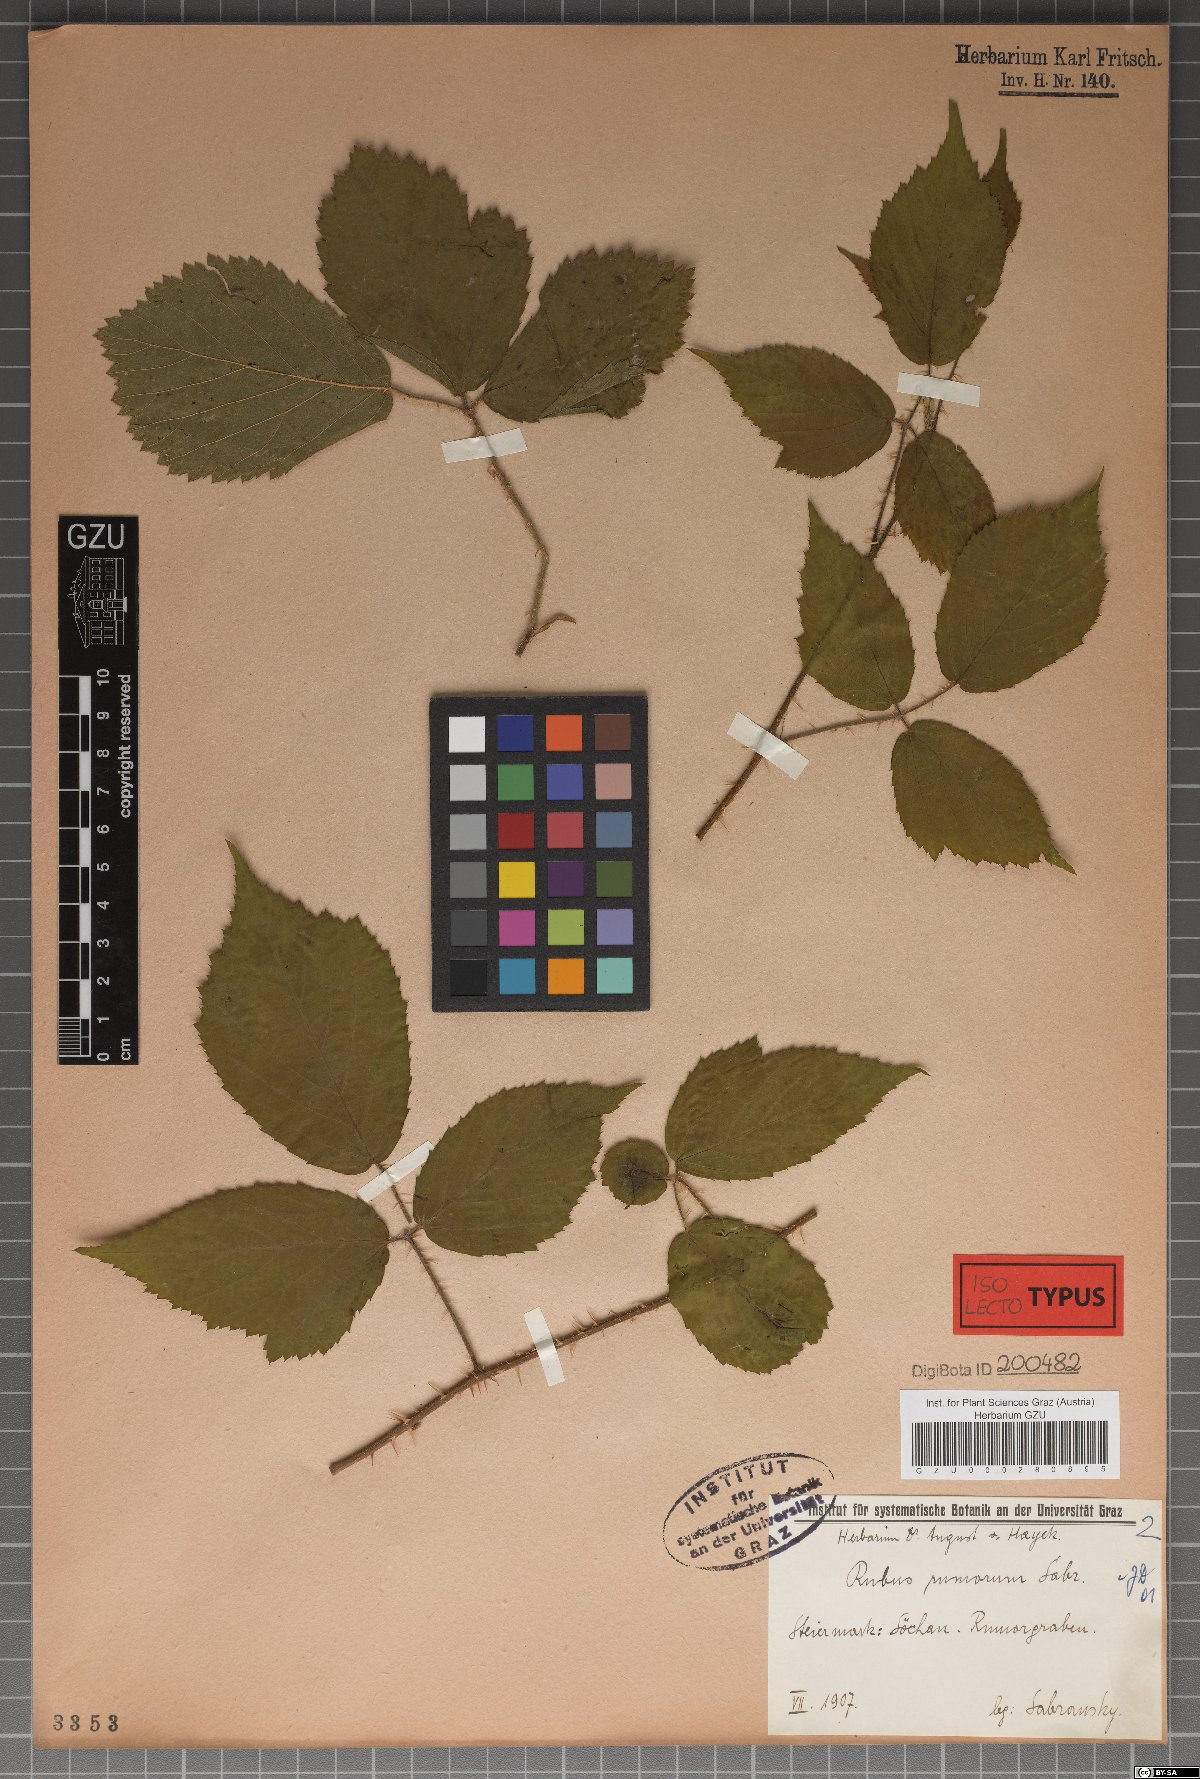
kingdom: Plantae
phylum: Tracheophyta
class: Magnoliopsida
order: Rosales
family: Rosaceae
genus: Rubus
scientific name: Rubus rivularis
